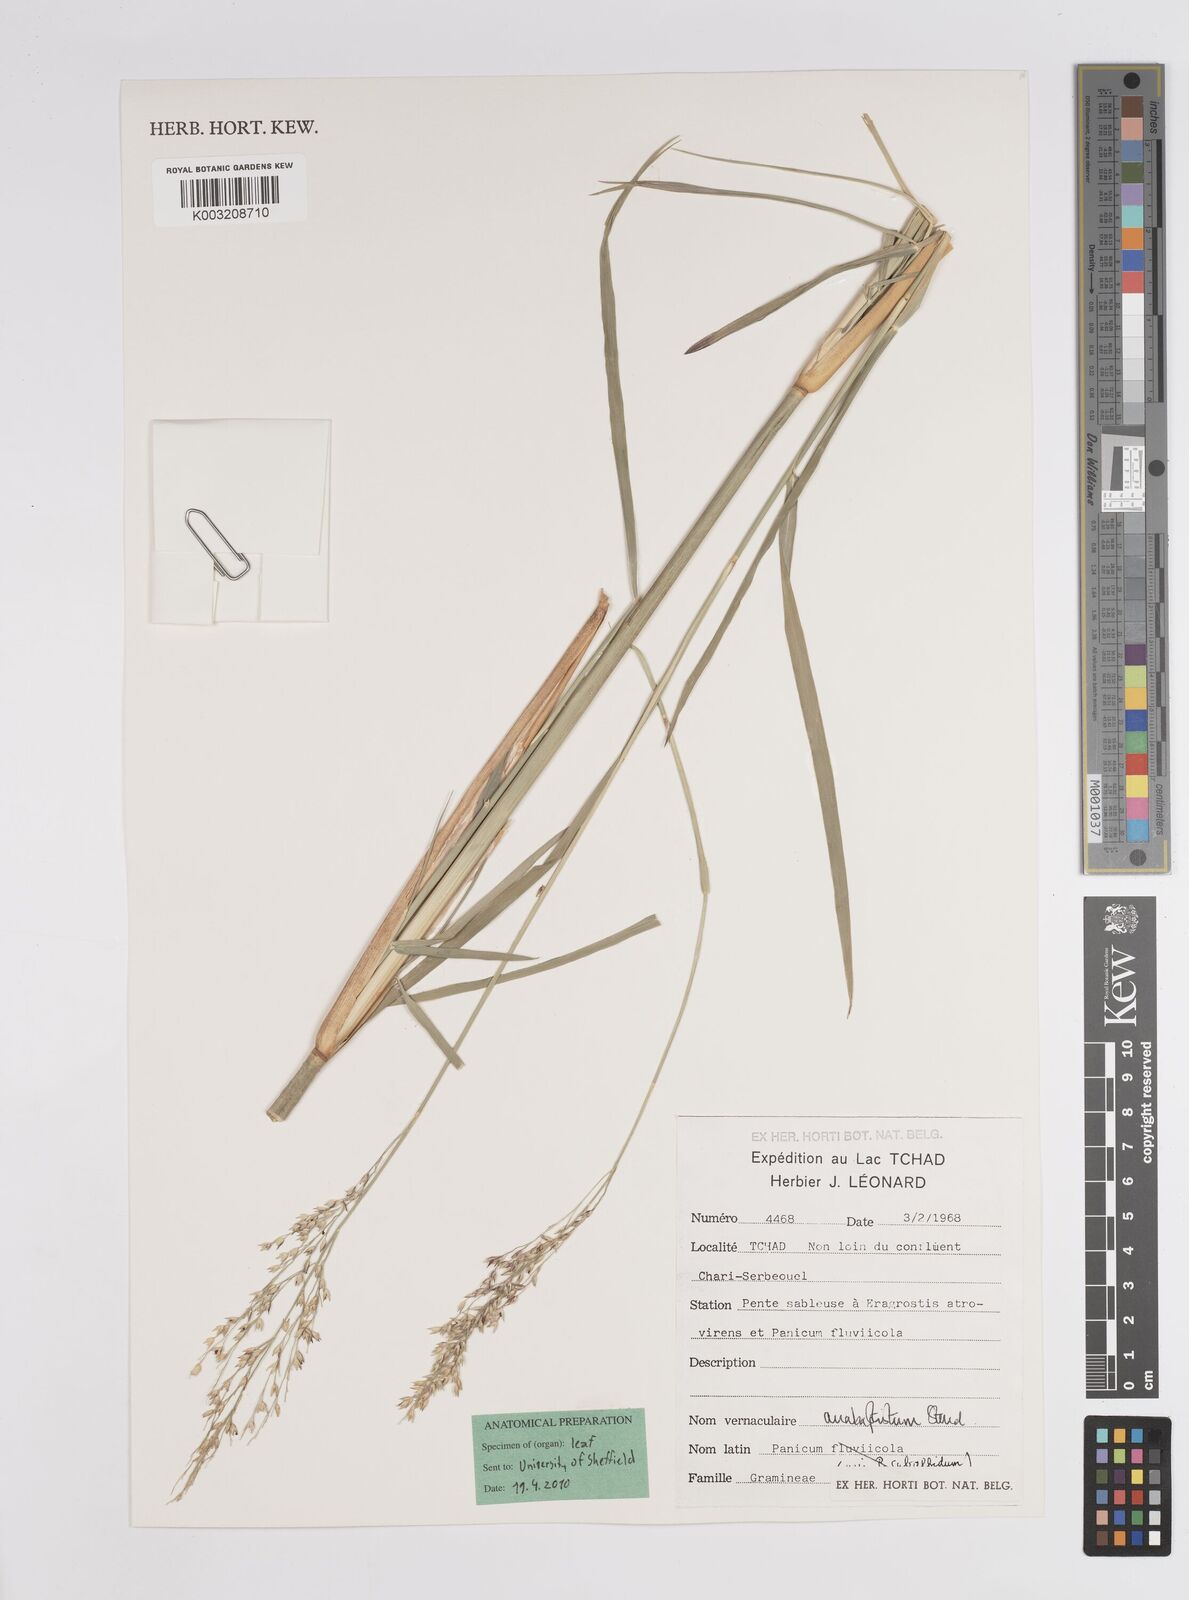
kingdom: Plantae
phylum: Tracheophyta
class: Liliopsida
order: Poales
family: Poaceae
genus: Panicum
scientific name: Panicum anabaptistum
